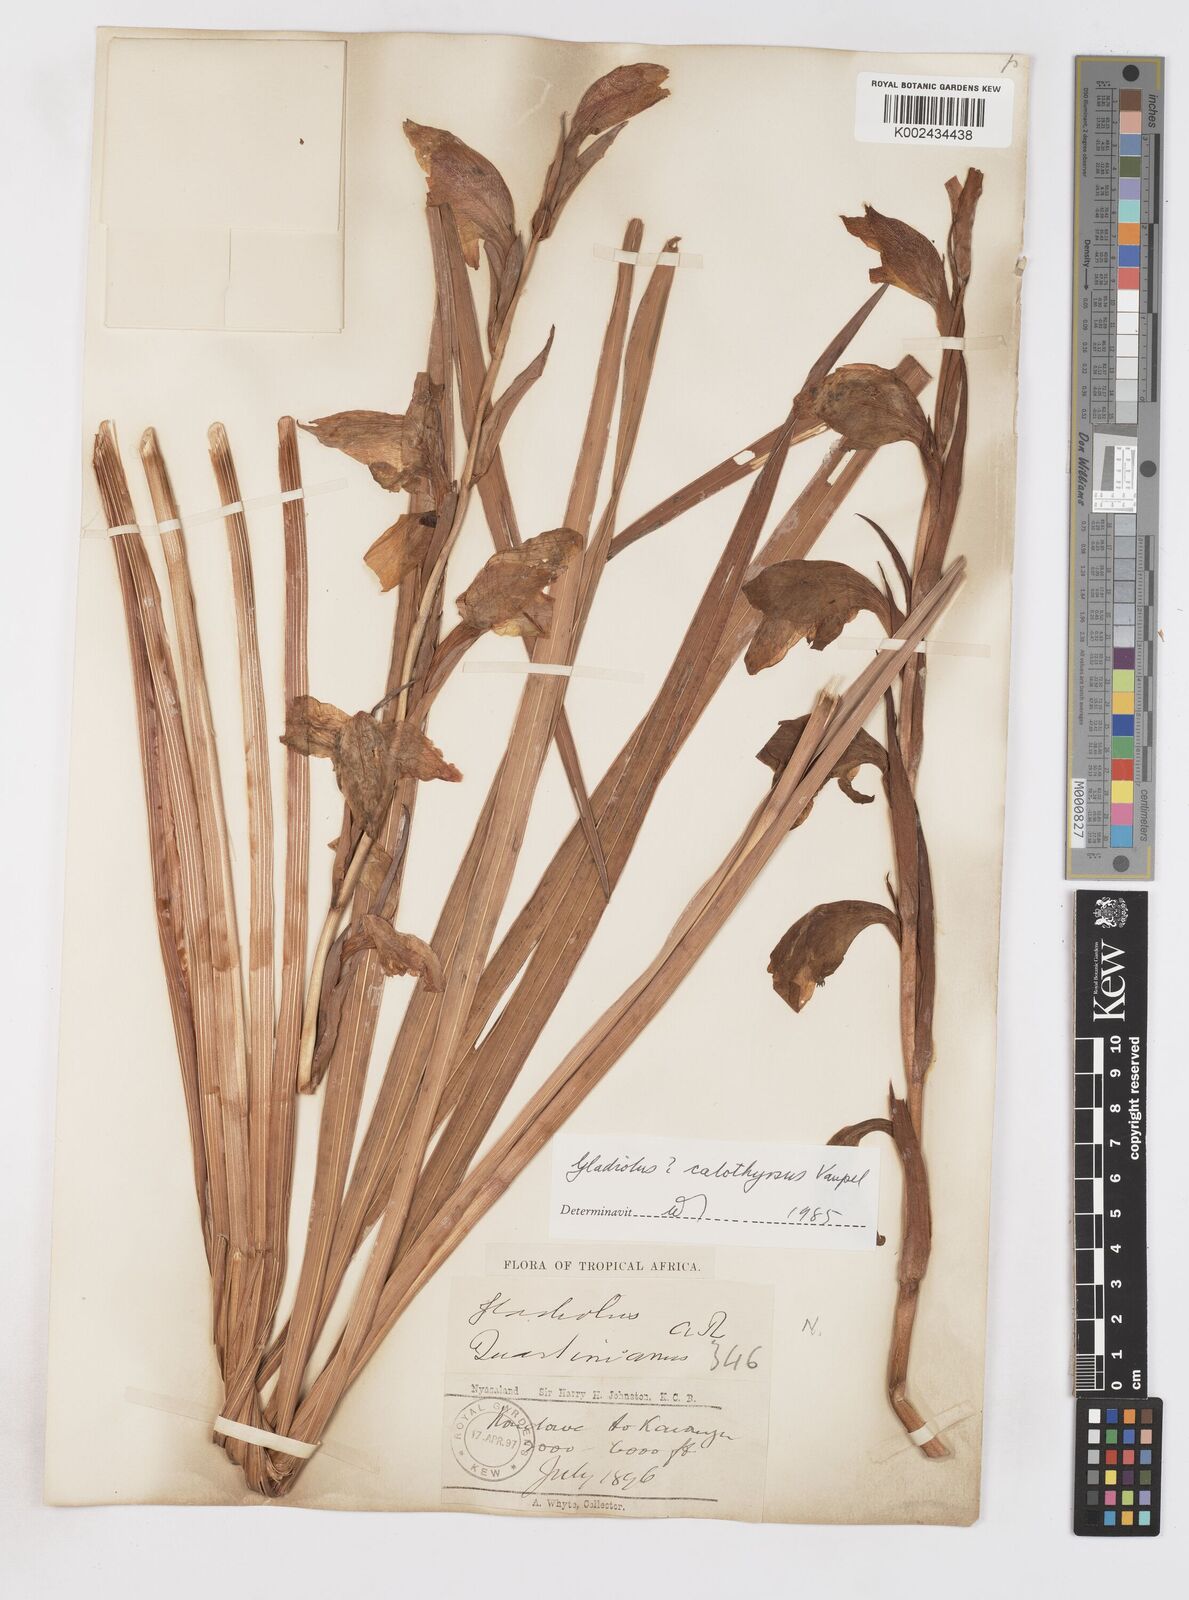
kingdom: Plantae
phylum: Tracheophyta
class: Liliopsida
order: Asparagales
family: Iridaceae
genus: Gladiolus
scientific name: Gladiolus dalenii
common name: Cornflag
